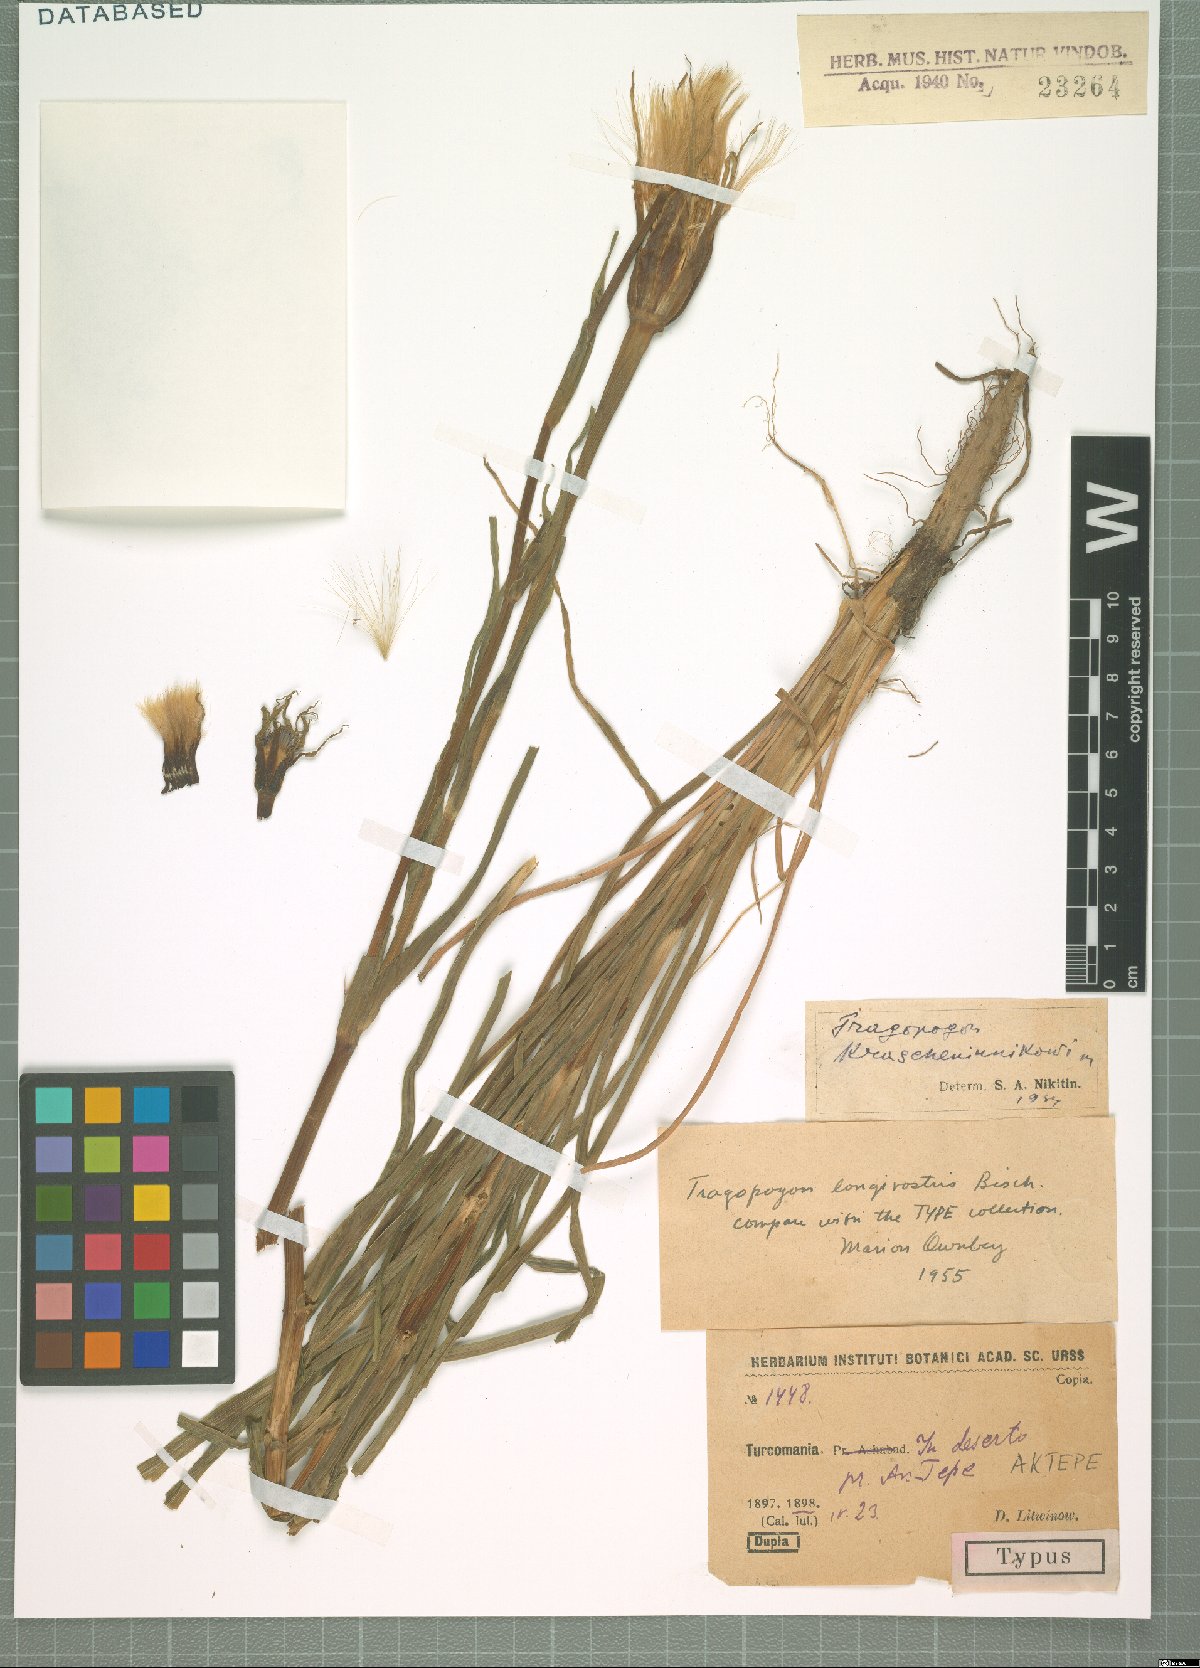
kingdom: Plantae
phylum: Tracheophyta
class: Magnoliopsida
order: Asterales
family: Asteraceae
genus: Tragopogon
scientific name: Tragopogon coelesyriacus
